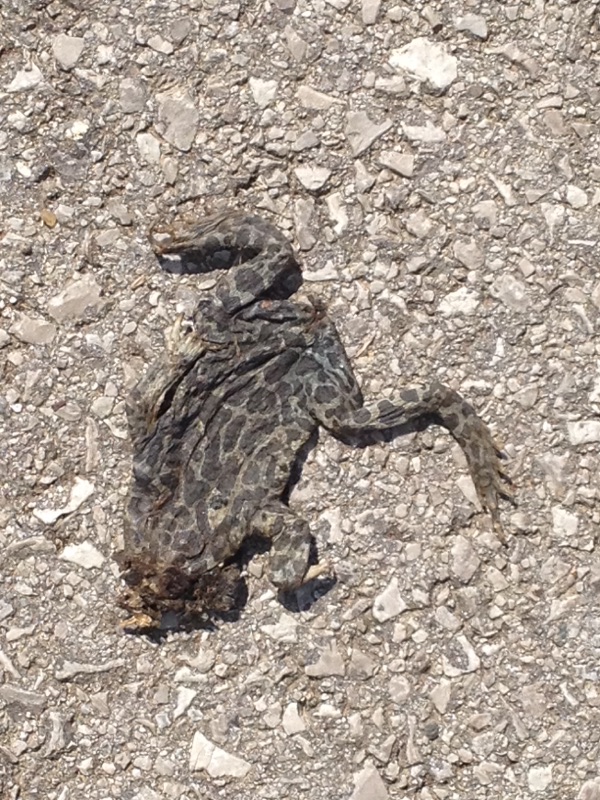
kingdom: Animalia
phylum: Chordata
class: Amphibia
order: Anura
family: Bufonidae
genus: Bufotes
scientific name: Bufotes viridis
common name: European green toad
